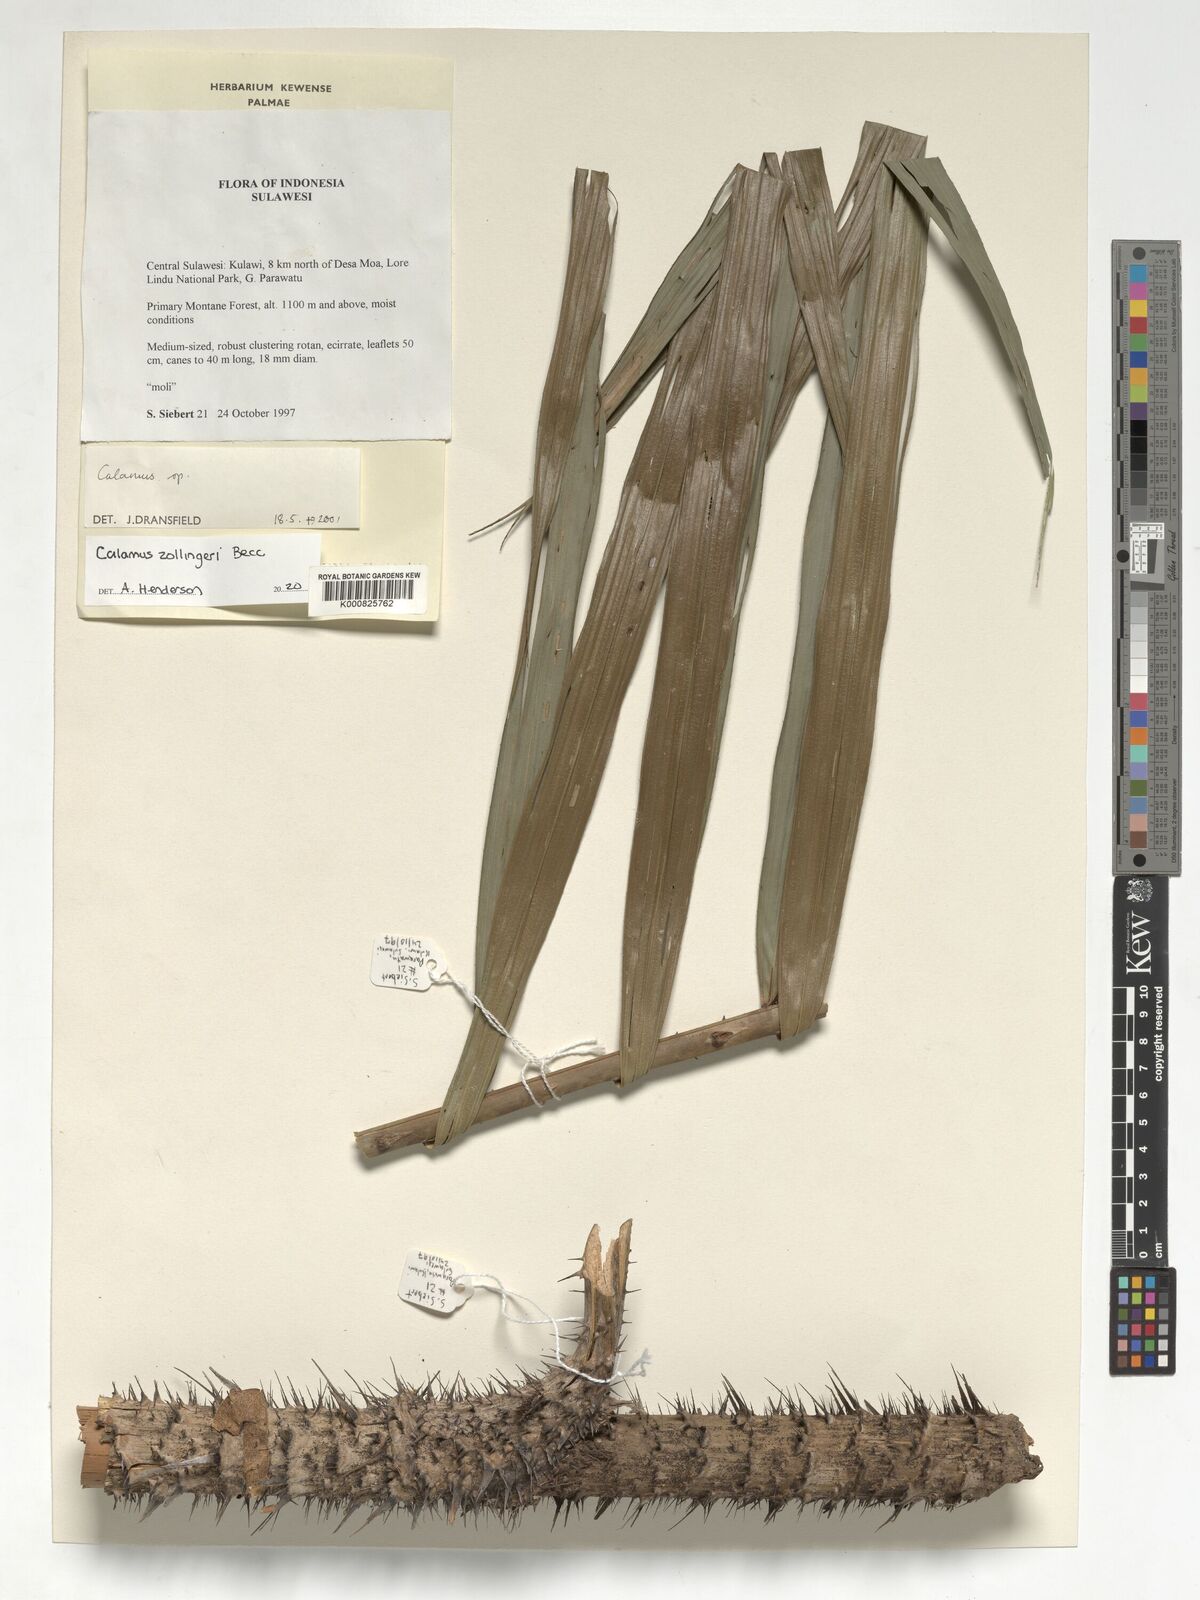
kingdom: Plantae
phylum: Tracheophyta
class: Liliopsida
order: Arecales
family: Arecaceae
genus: Calamus
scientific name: Calamus zollingeri
